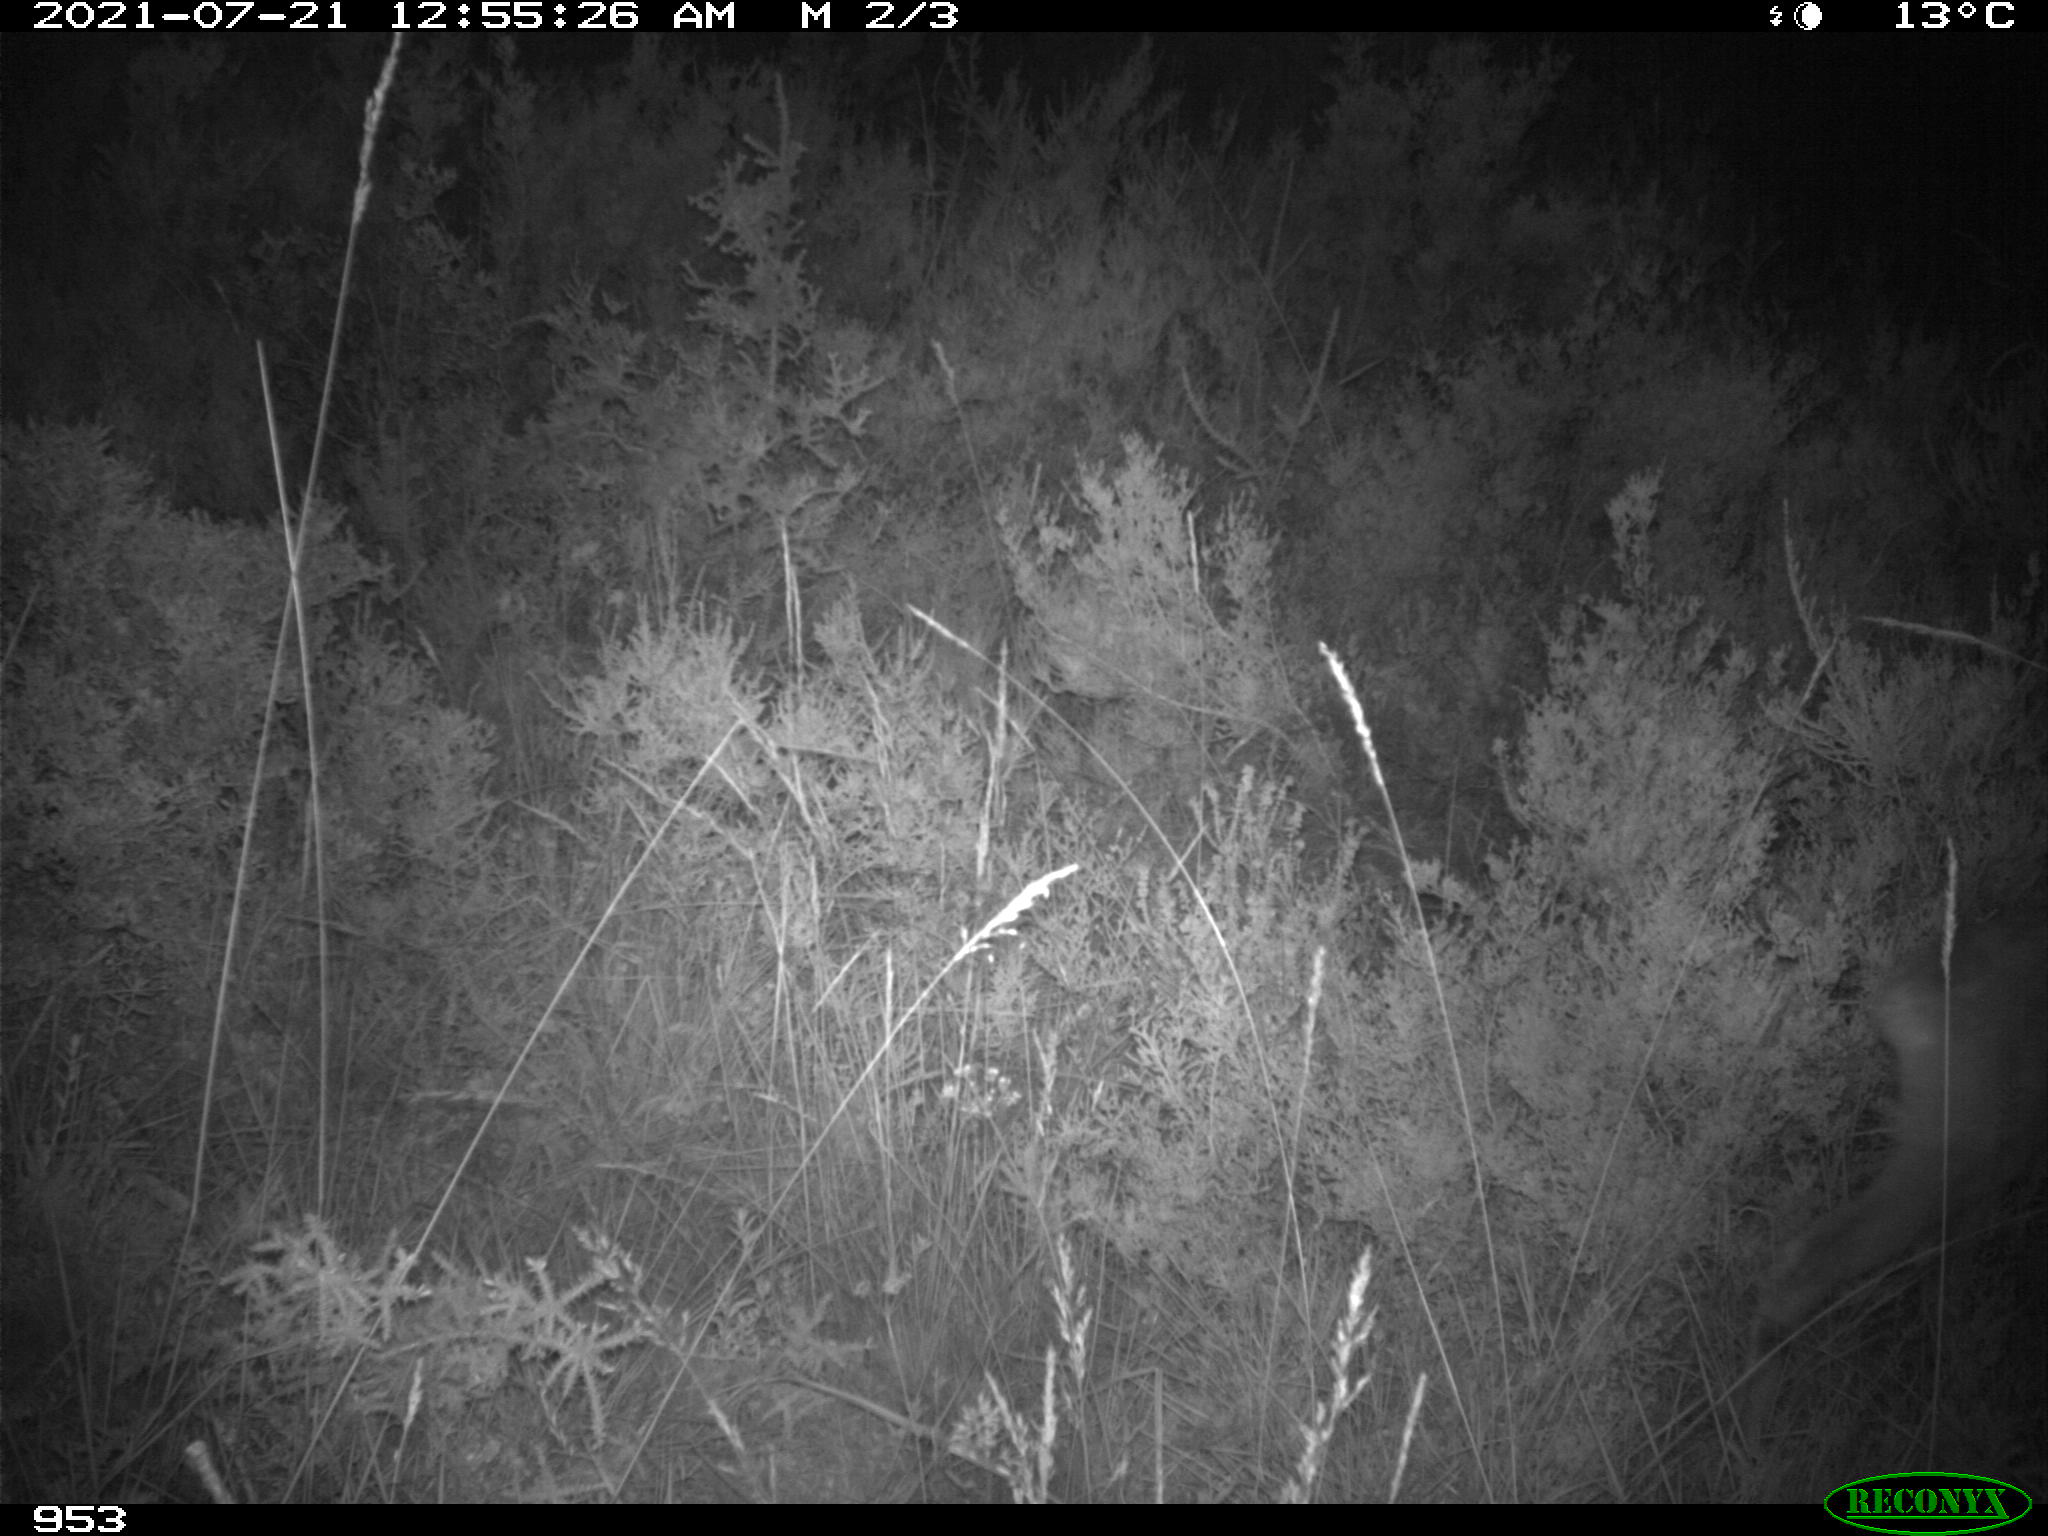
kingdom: Animalia
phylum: Chordata
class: Mammalia
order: Artiodactyla
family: Cervidae
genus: Capreolus
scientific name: Capreolus capreolus
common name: Western roe deer
